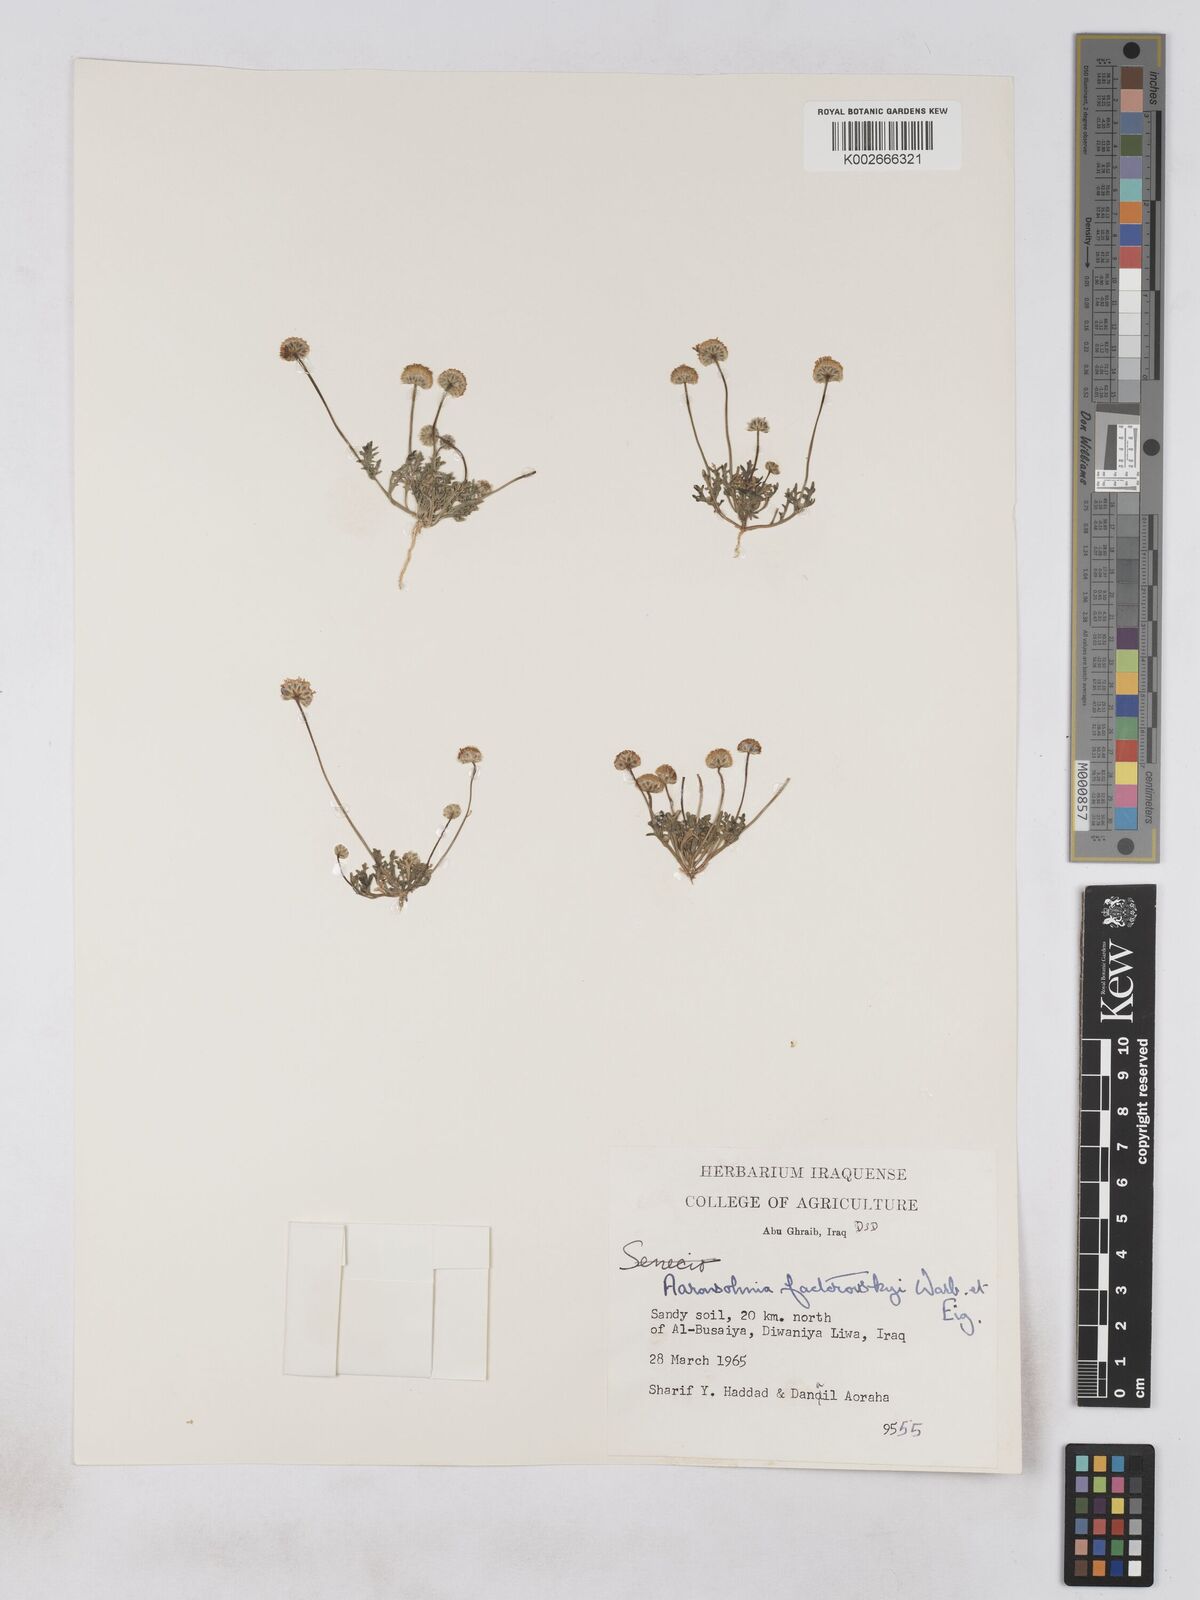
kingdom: Plantae
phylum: Tracheophyta
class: Magnoliopsida
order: Asterales
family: Asteraceae
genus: Otoglyphis
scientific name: Otoglyphis factorovskyi
